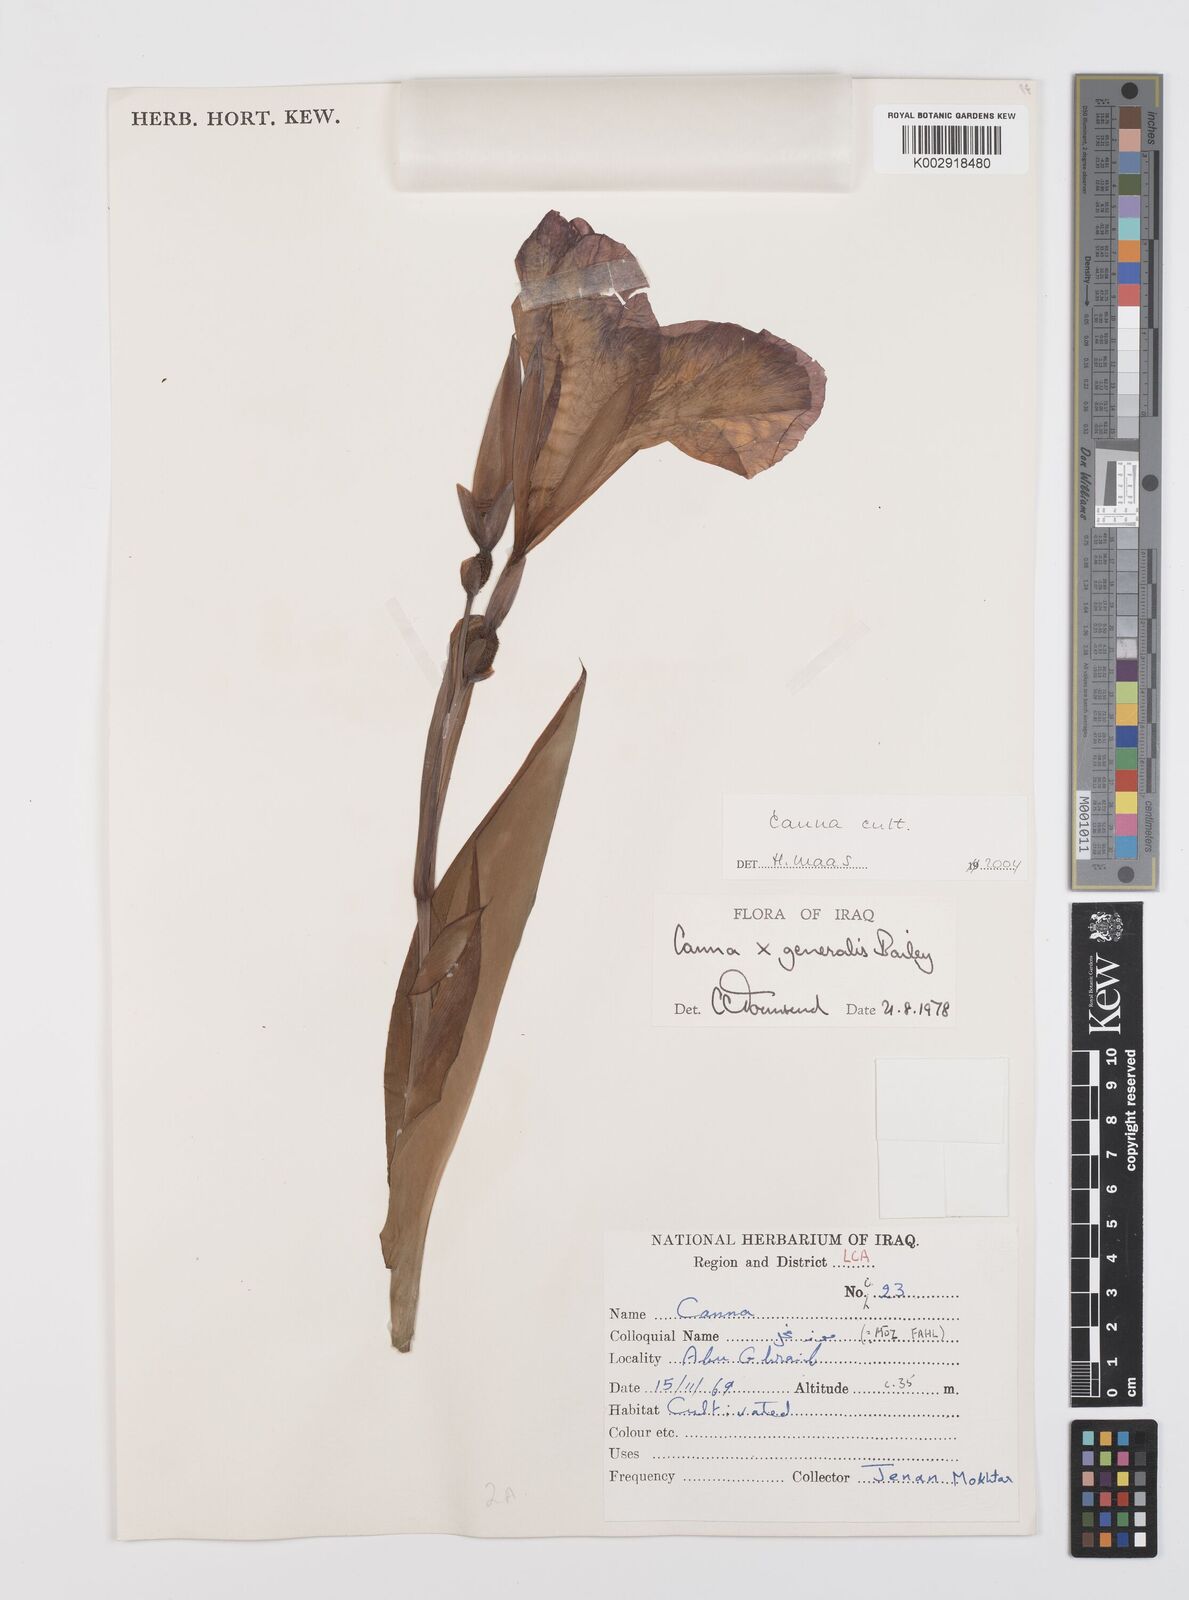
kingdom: Plantae
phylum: Tracheophyta
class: Liliopsida
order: Zingiberales
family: Cannaceae
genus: Canna
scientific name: Canna indica
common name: Indian shot
